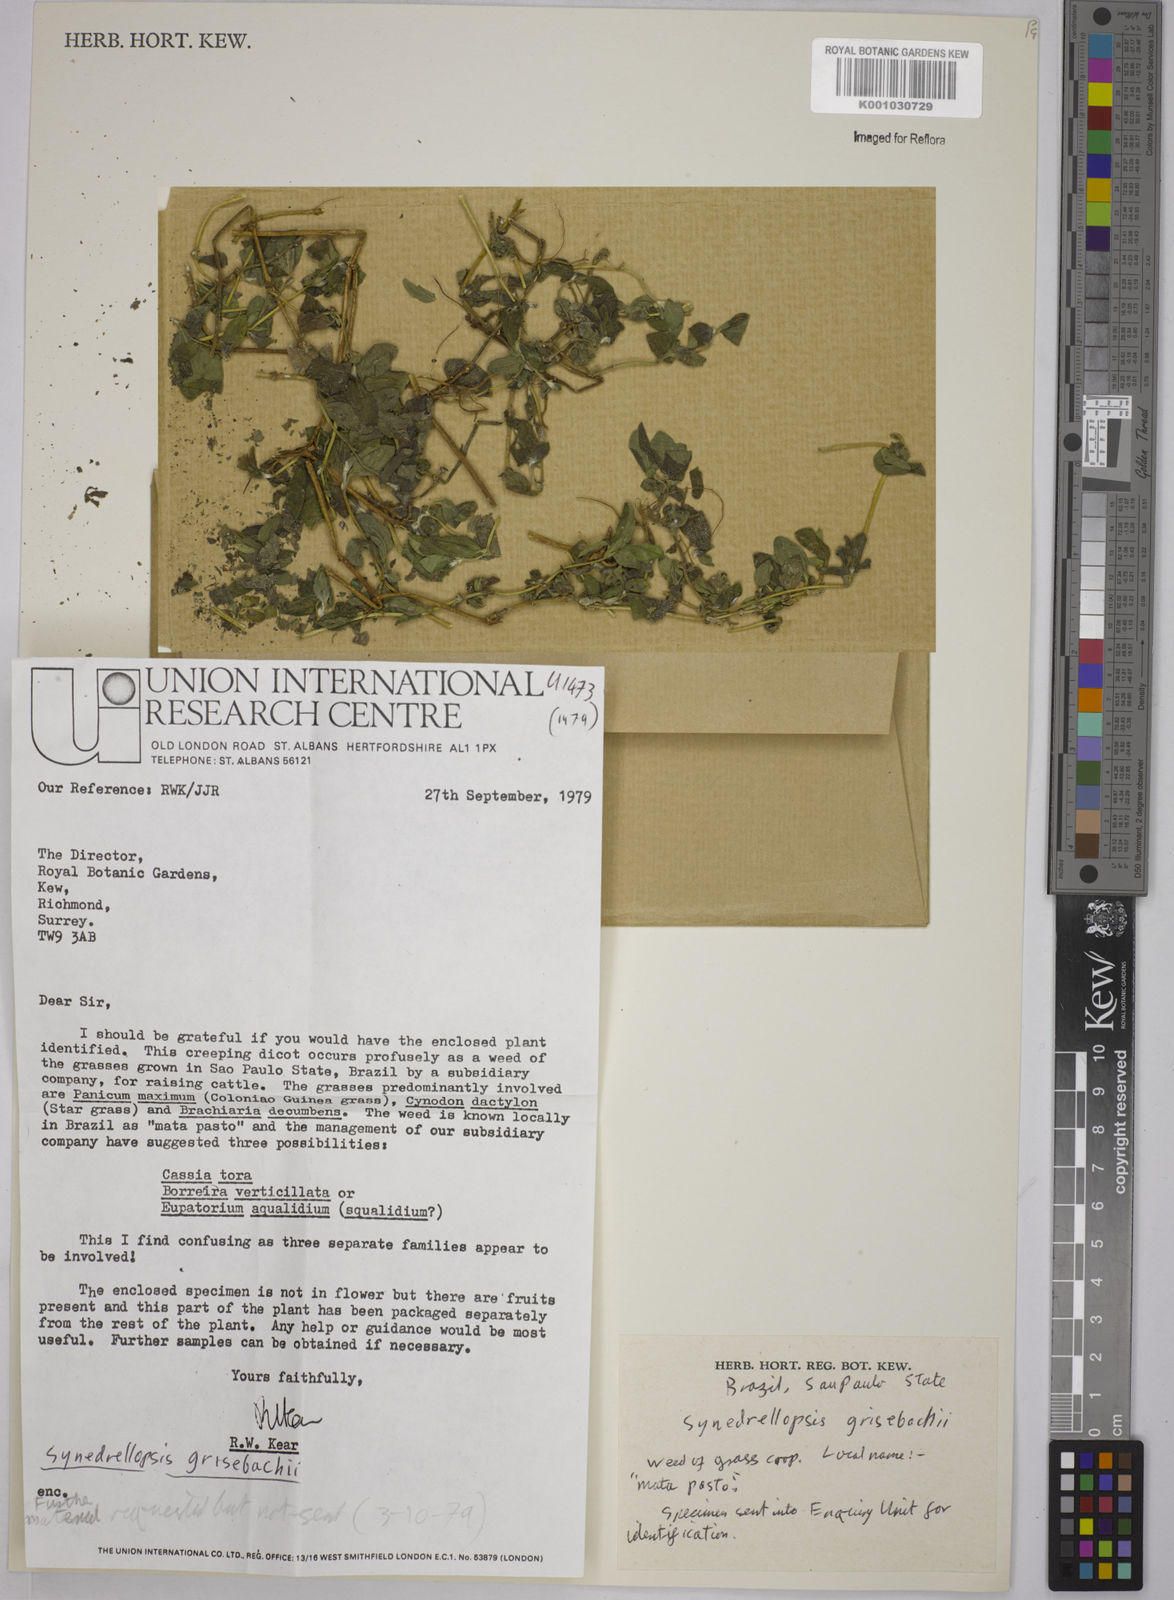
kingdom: Plantae
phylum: Tracheophyta
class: Magnoliopsida
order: Asterales
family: Asteraceae
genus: Synedrellopsis
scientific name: Synedrellopsis grisebachii
